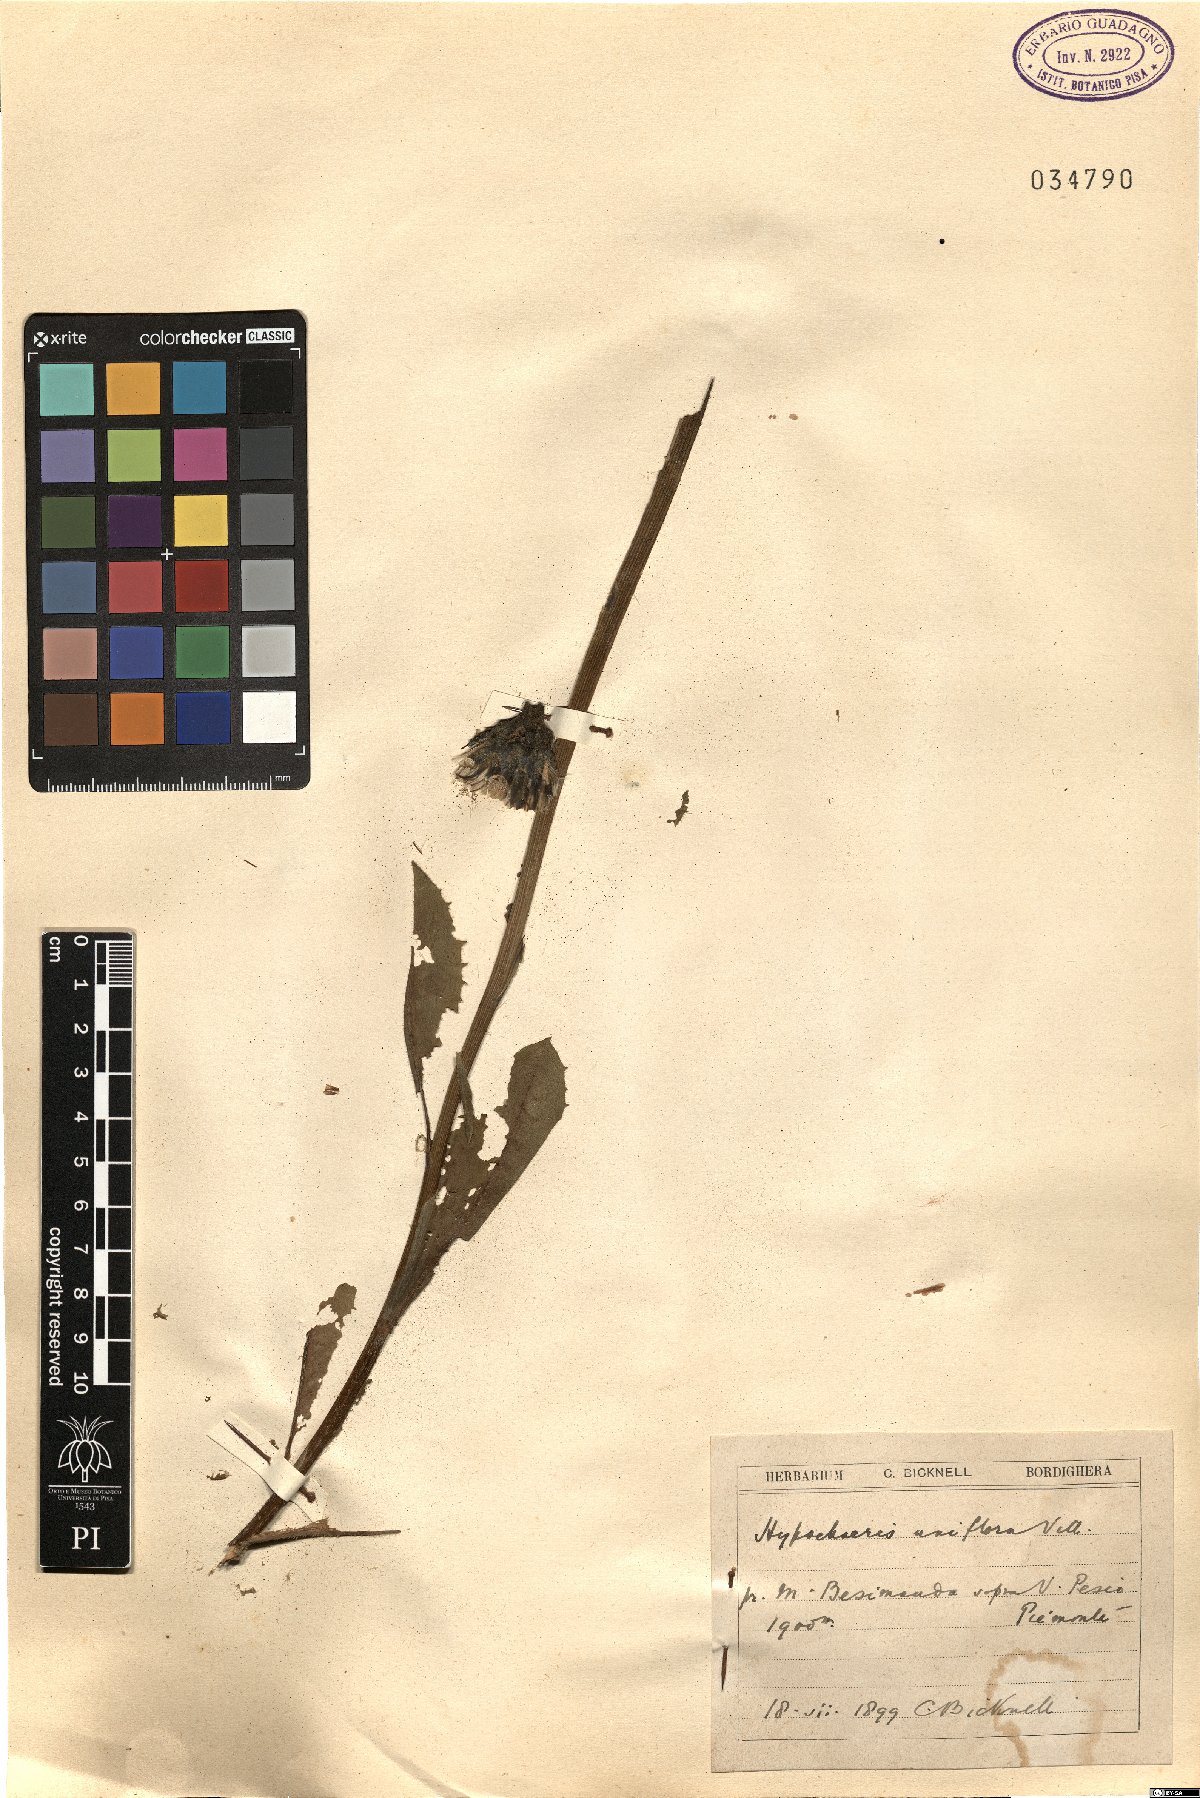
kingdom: Plantae
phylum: Tracheophyta
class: Magnoliopsida
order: Asterales
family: Asteraceae
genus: Trommsdorffia
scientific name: Trommsdorffia uniflora
